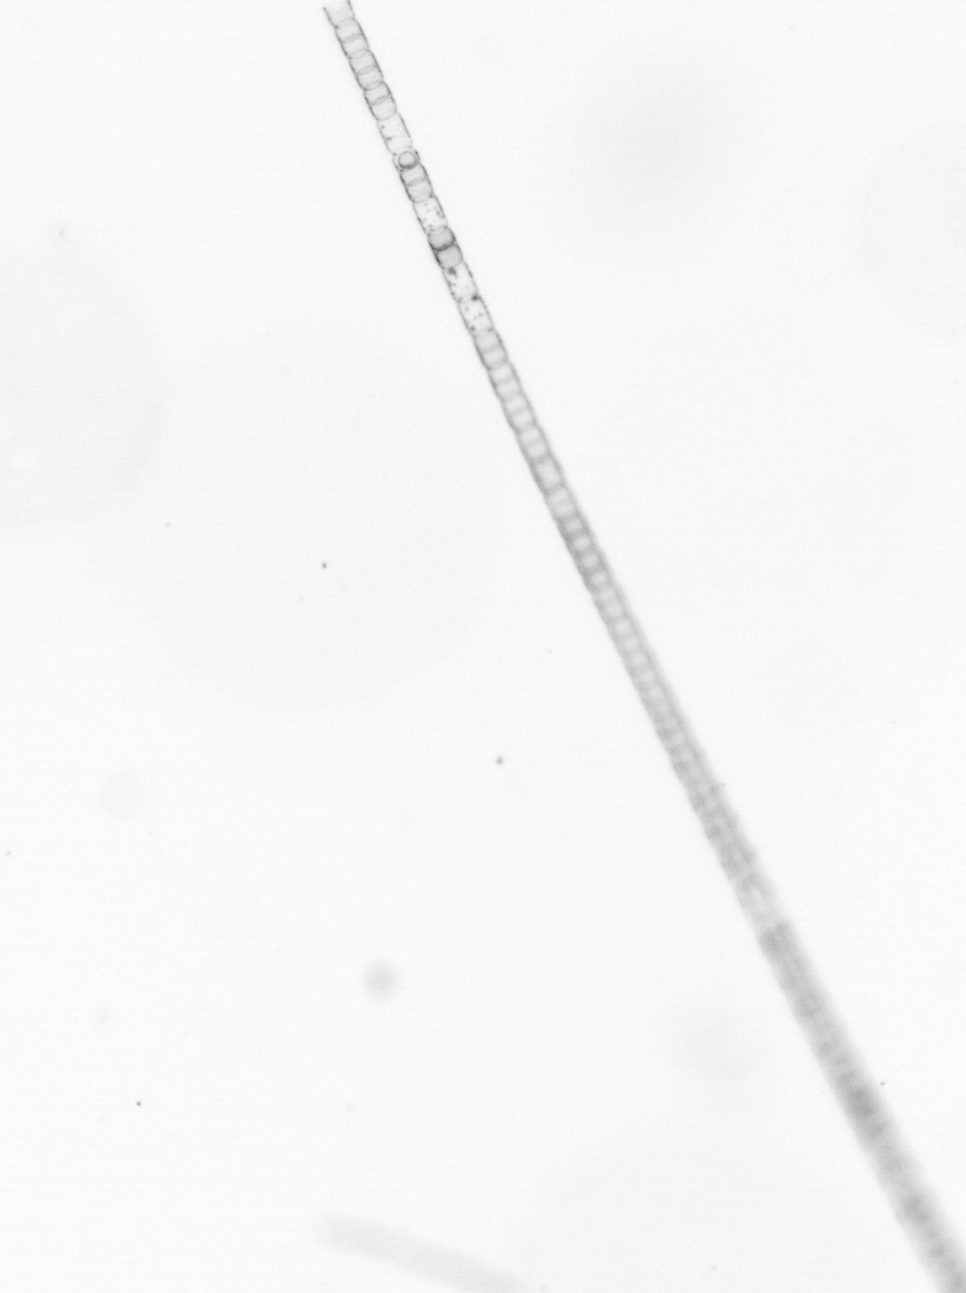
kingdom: Chromista
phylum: Ochrophyta
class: Bacillariophyceae
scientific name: Bacillariophyceae
